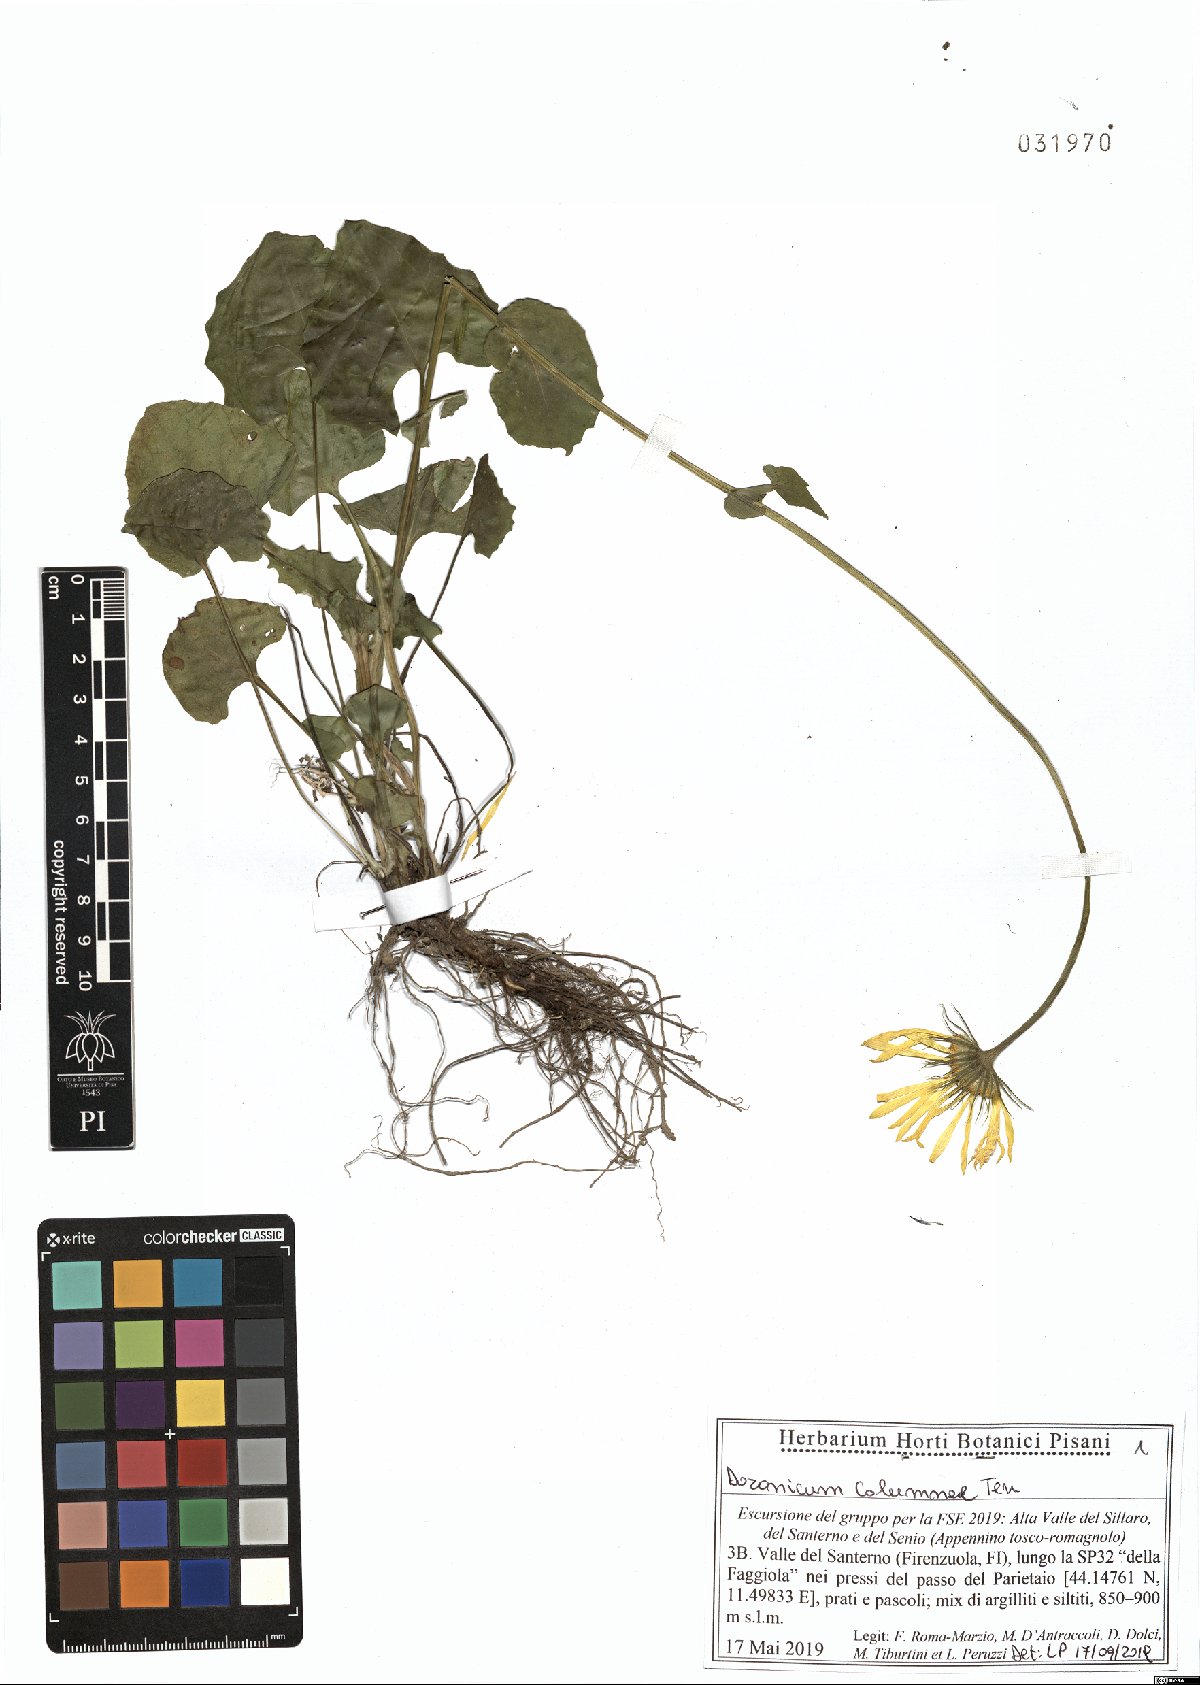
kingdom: Plantae
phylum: Tracheophyta
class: Magnoliopsida
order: Asterales
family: Asteraceae
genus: Doronicum
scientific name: Doronicum columnae
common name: Eastern leopard's-bane
